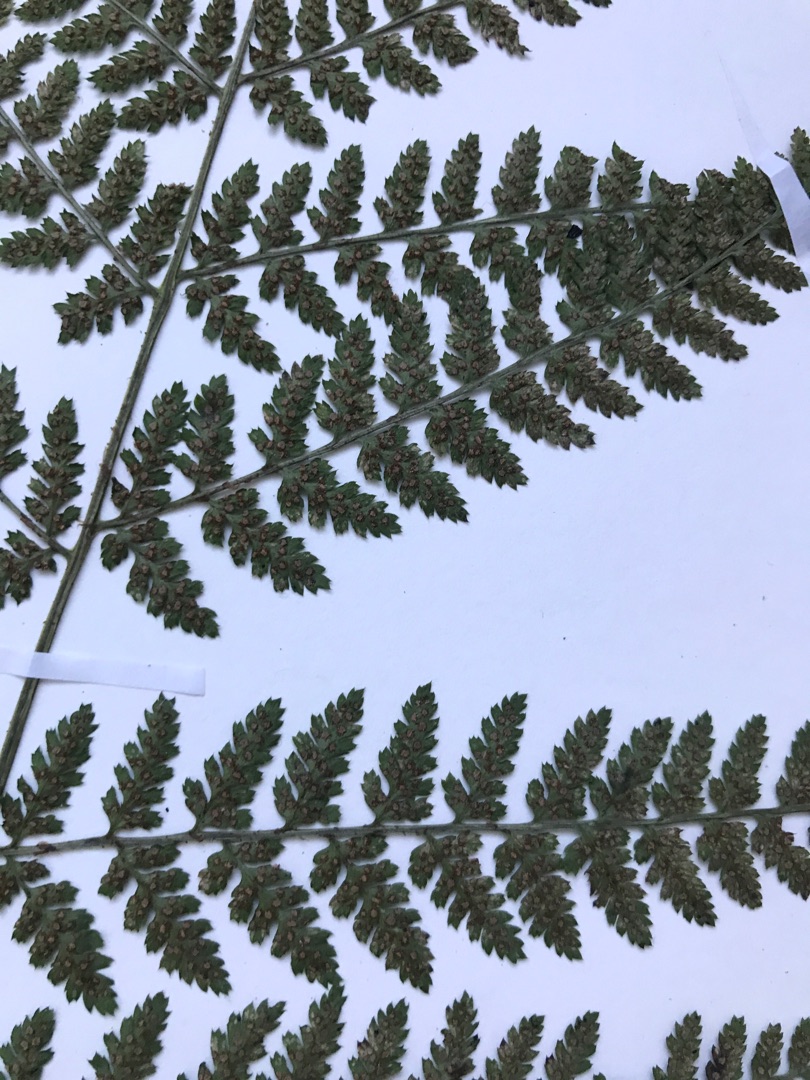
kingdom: Plantae
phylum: Tracheophyta
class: Polypodiopsida
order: Polypodiales
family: Dryopteridaceae
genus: Dryopteris
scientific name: Dryopteris dilatata
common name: Bredbladet mangeløv
